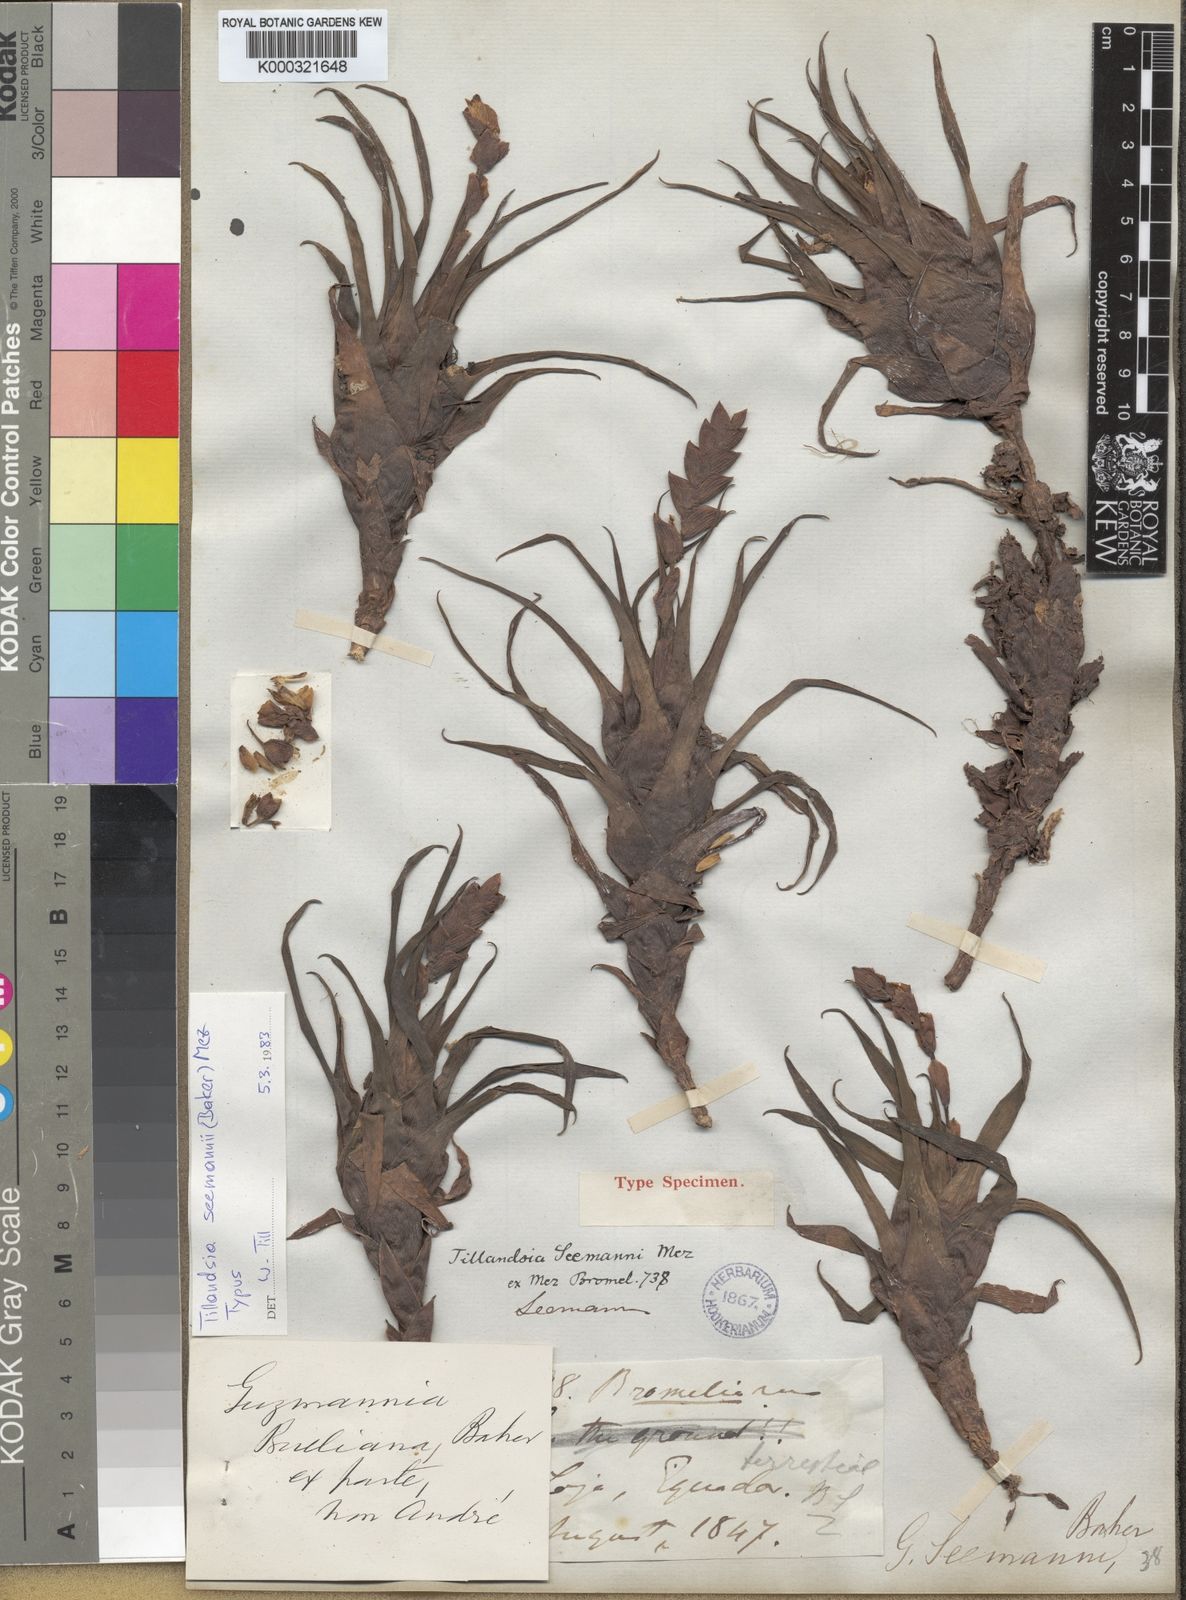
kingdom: Plantae
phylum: Tracheophyta
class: Liliopsida
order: Poales
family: Bromeliaceae
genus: Racinaea
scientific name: Racinaea seemannii
